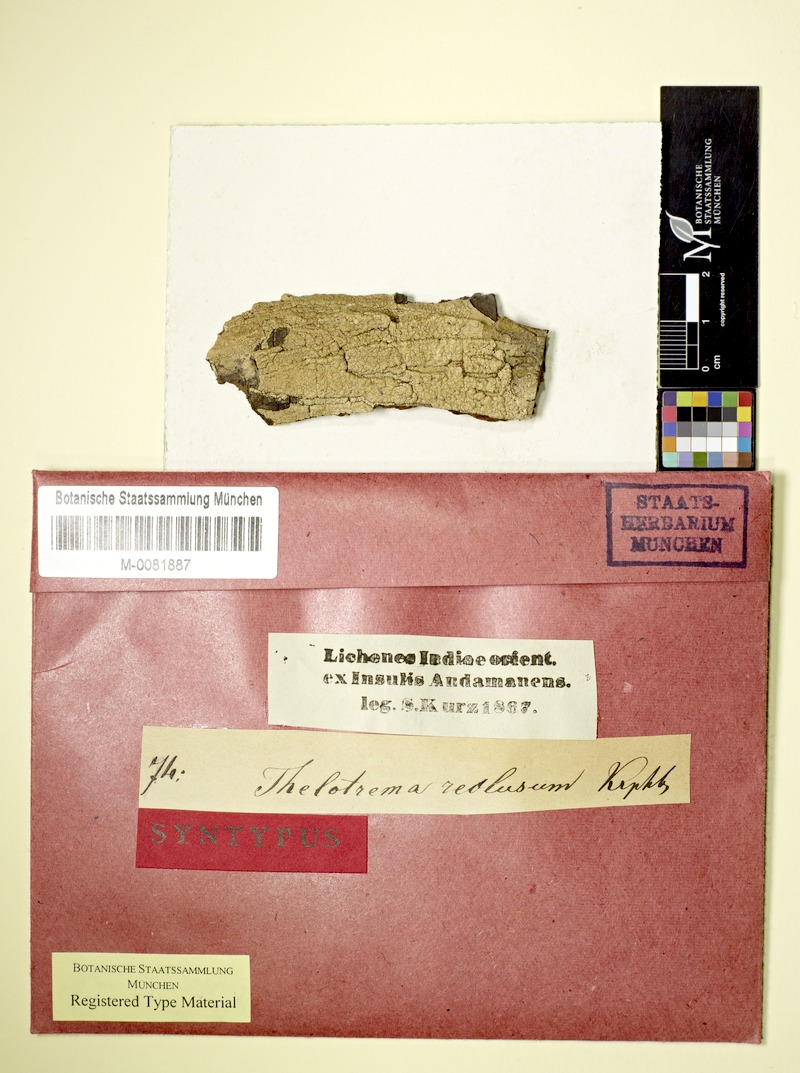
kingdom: Fungi
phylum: Ascomycota
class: Lecanoromycetes
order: Ostropales
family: Graphidaceae
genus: Leucodecton
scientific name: Leucodecton compunctellum
